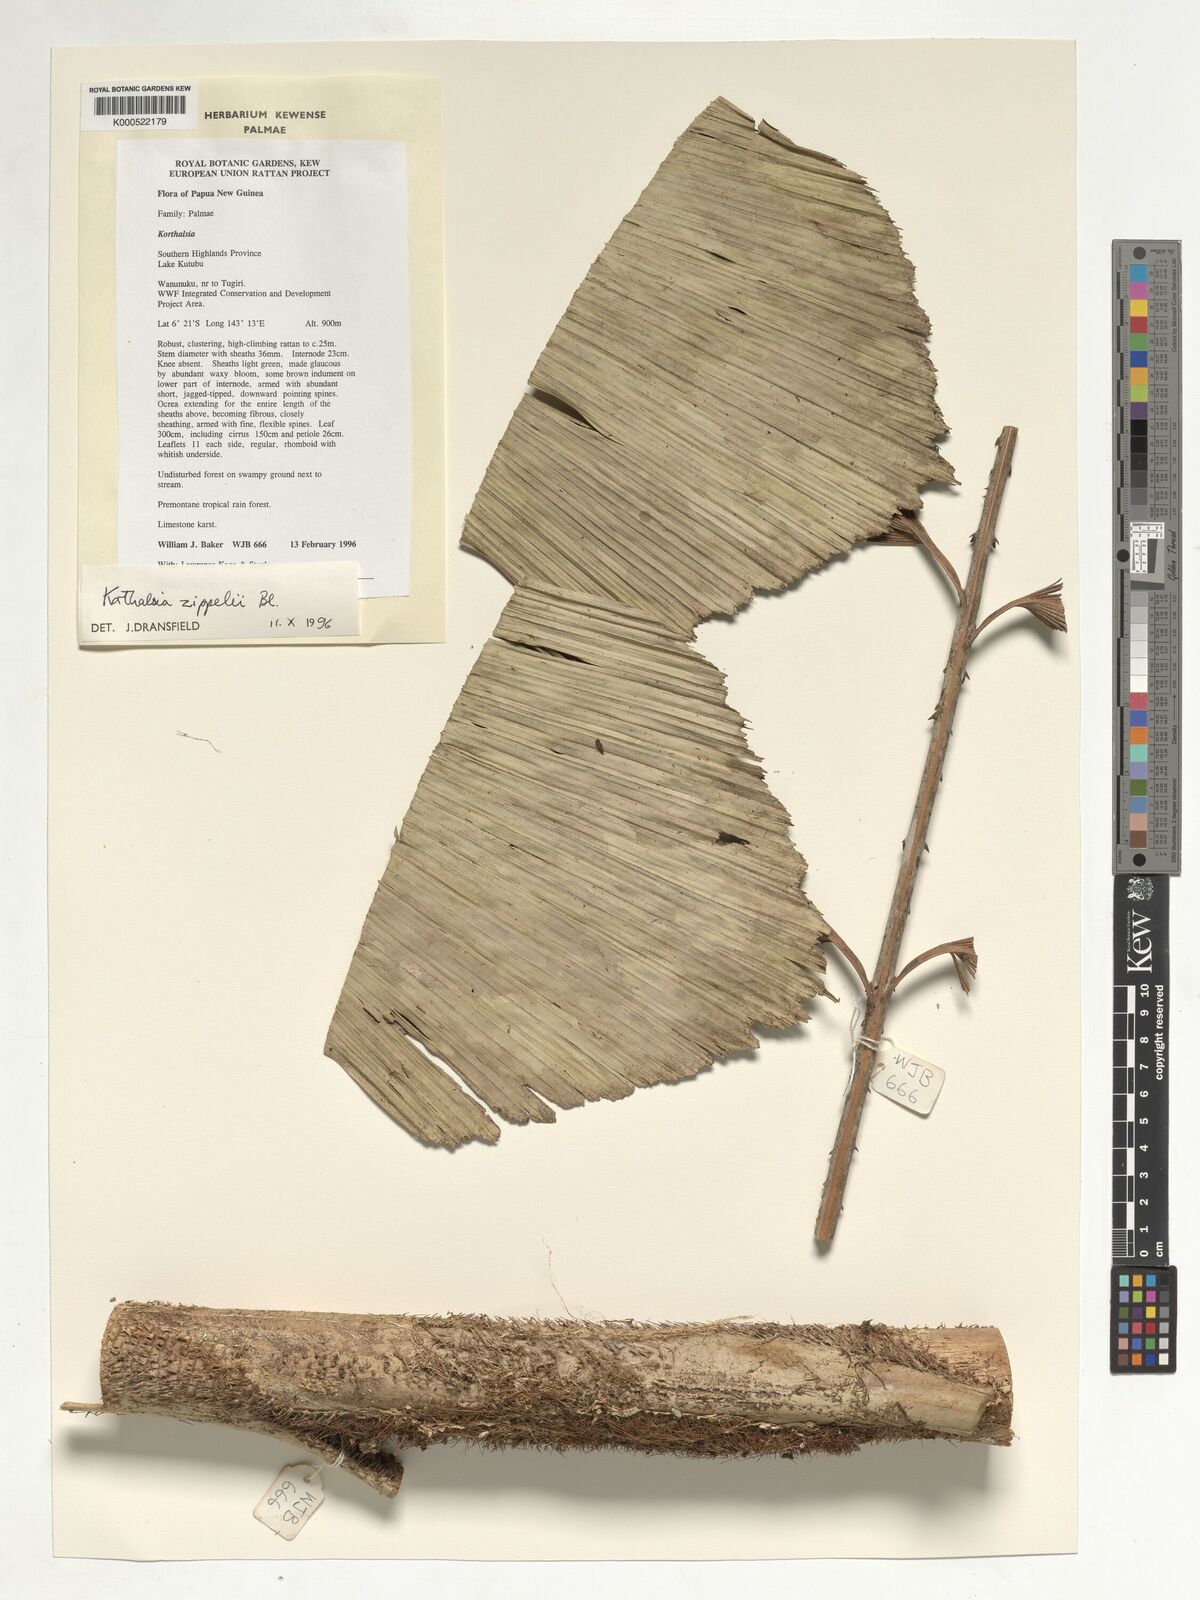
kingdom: Plantae
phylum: Tracheophyta
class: Liliopsida
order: Arecales
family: Arecaceae
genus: Korthalsia
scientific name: Korthalsia zippelii
